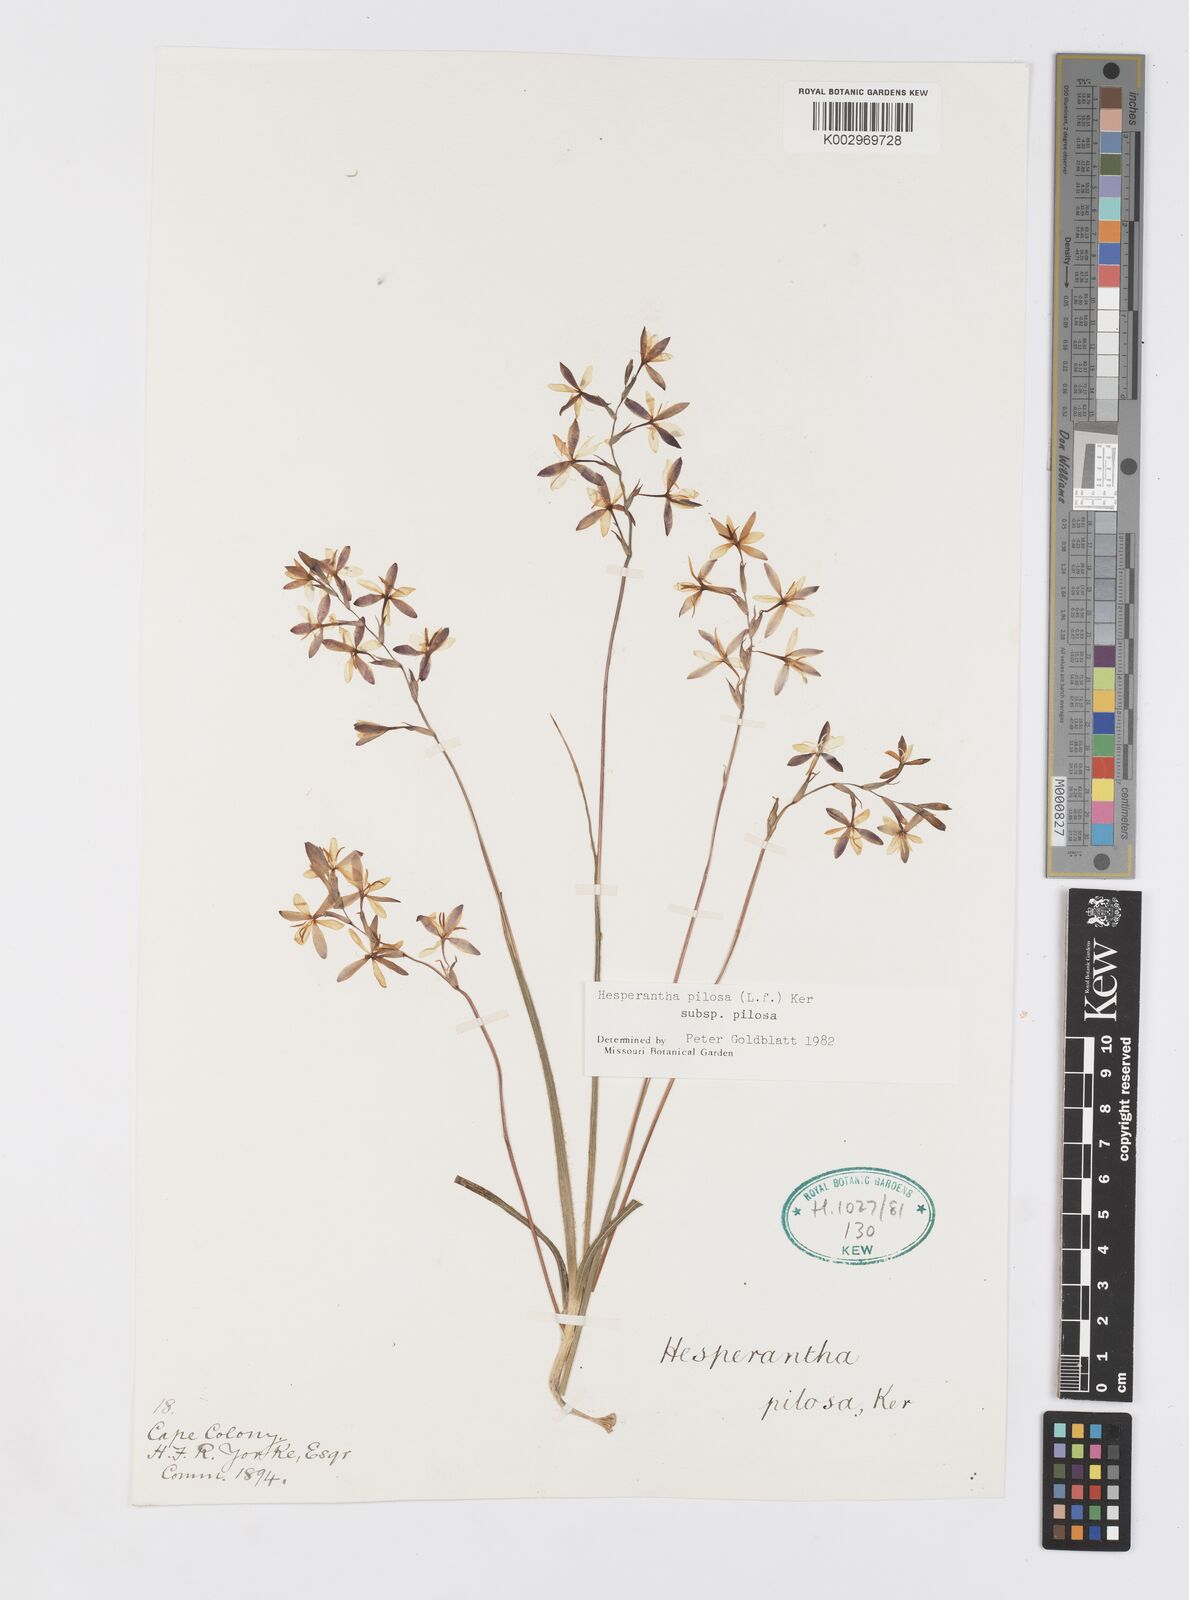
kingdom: Plantae
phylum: Tracheophyta
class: Liliopsida
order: Asparagales
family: Iridaceae
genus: Hesperantha
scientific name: Hesperantha pilosa
